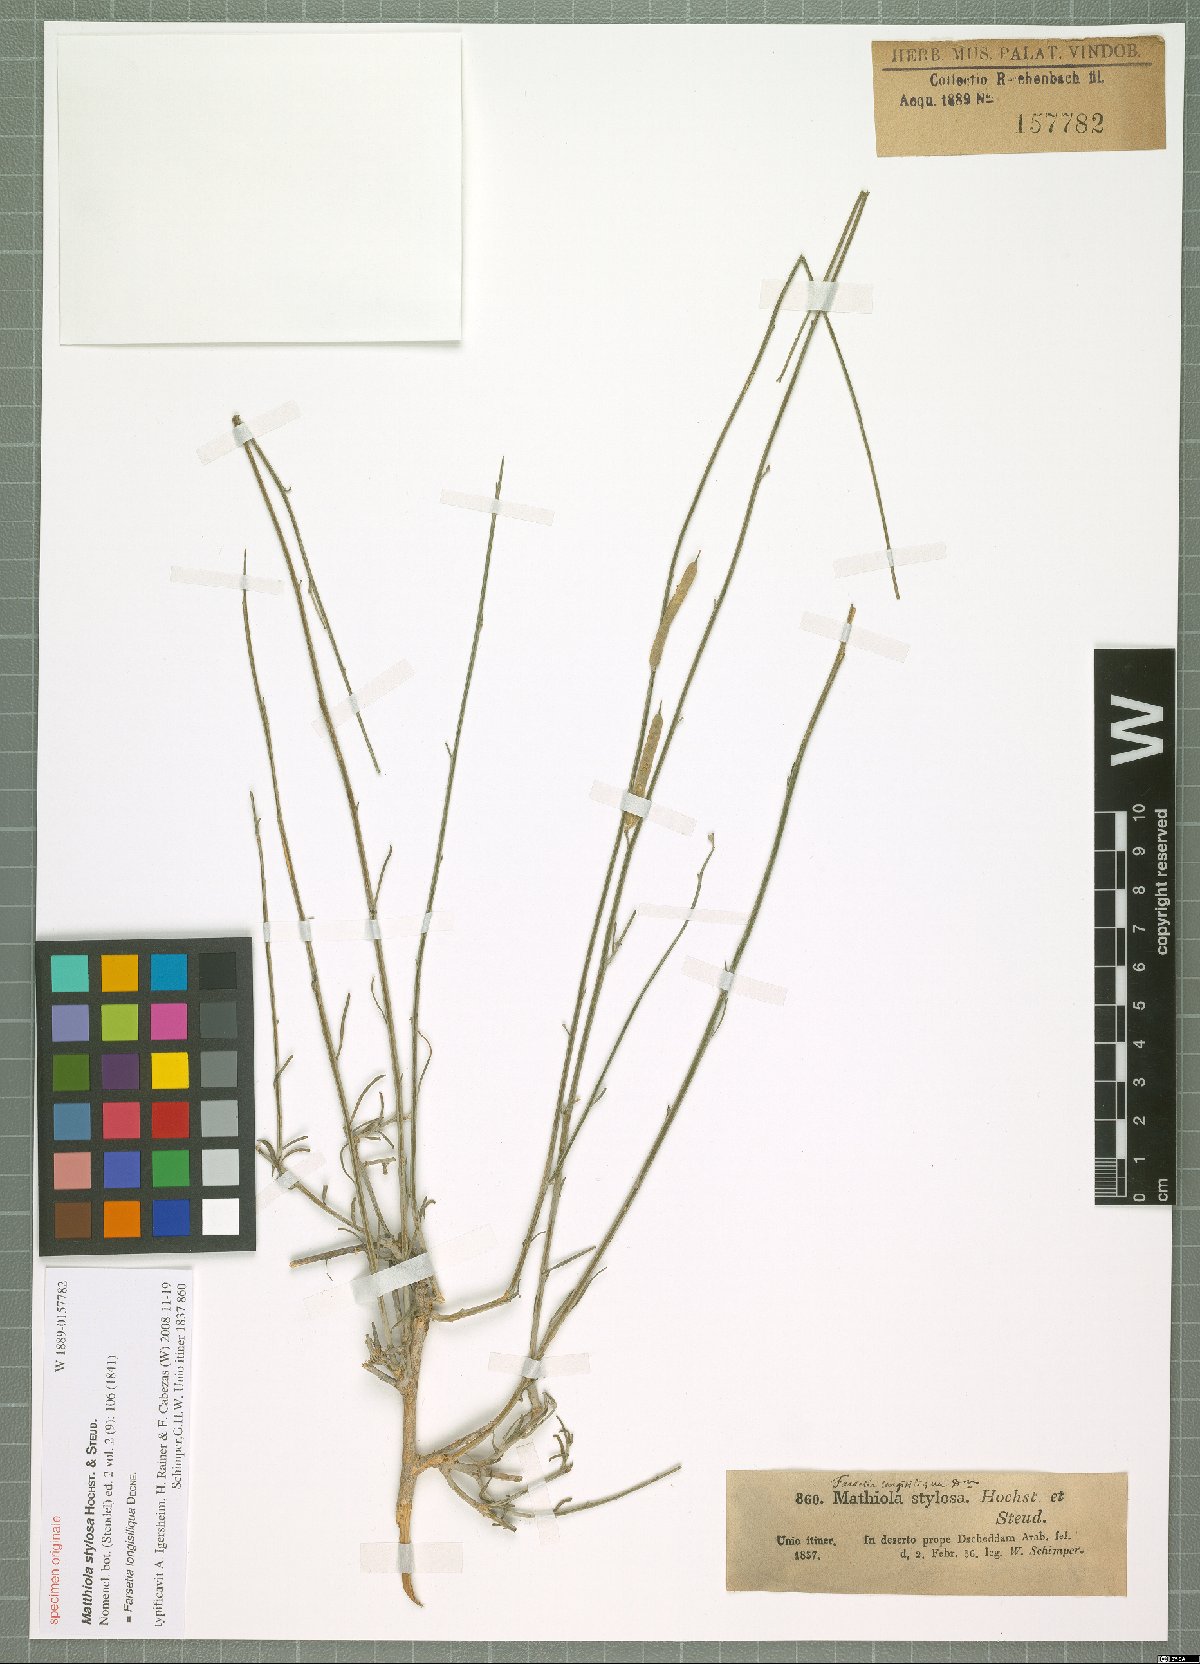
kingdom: Plantae
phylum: Tracheophyta
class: Magnoliopsida
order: Brassicales
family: Brassicaceae
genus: Farsetia
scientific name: Farsetia longisiliqua
